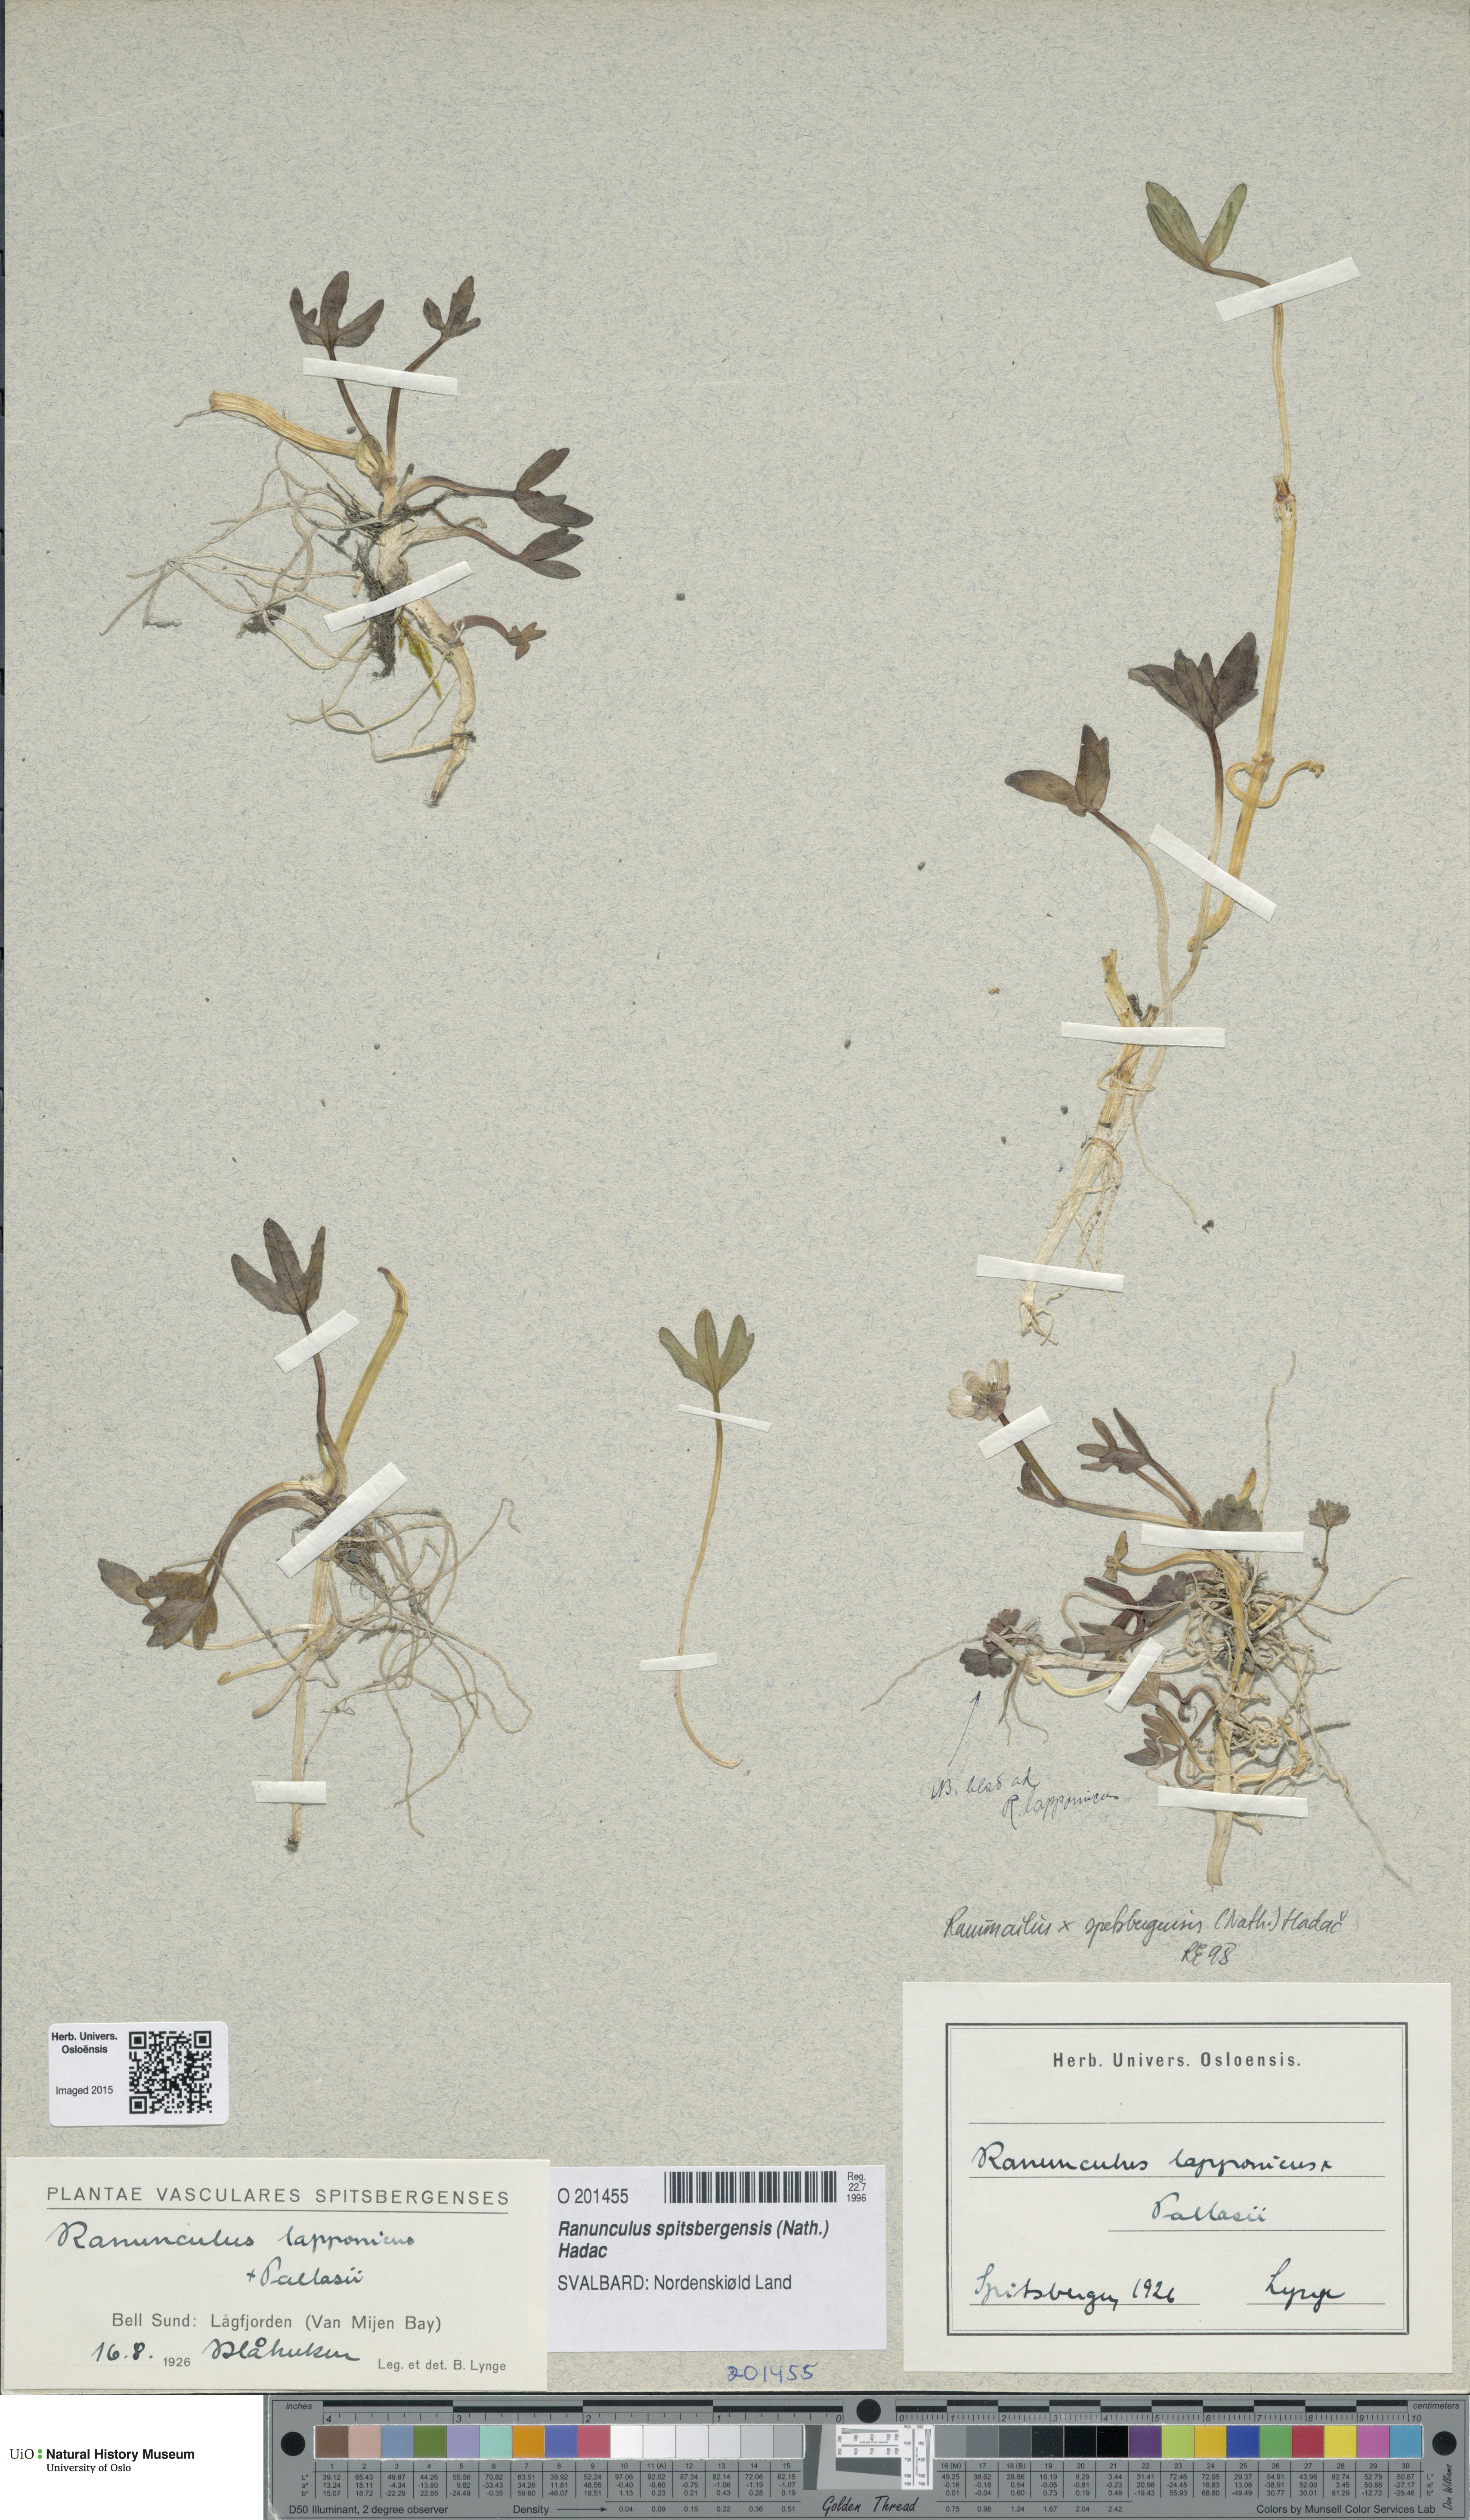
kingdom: Plantae
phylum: Tracheophyta
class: Magnoliopsida
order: Ranunculales
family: Ranunculaceae
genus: Coptidium
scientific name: Coptidium spitsbergense
